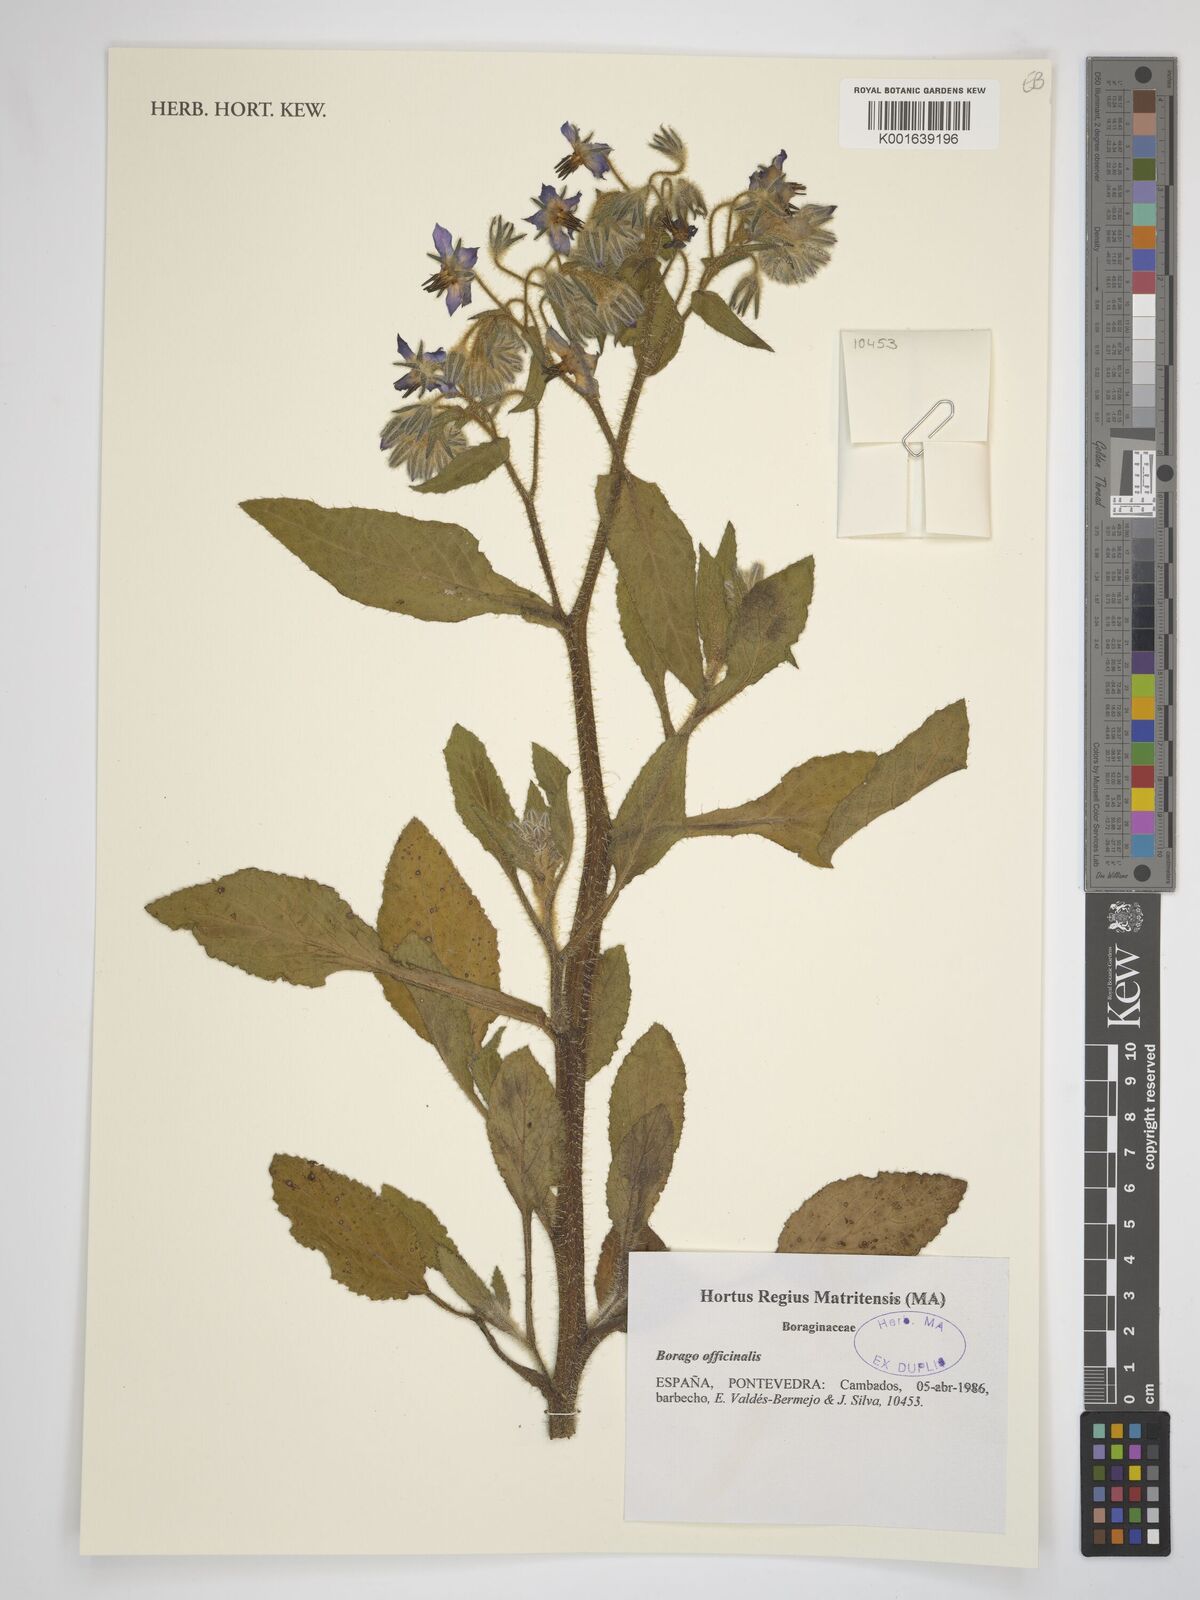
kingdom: Plantae
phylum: Tracheophyta
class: Magnoliopsida
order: Boraginales
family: Boraginaceae
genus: Borago
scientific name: Borago officinalis
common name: Borage
